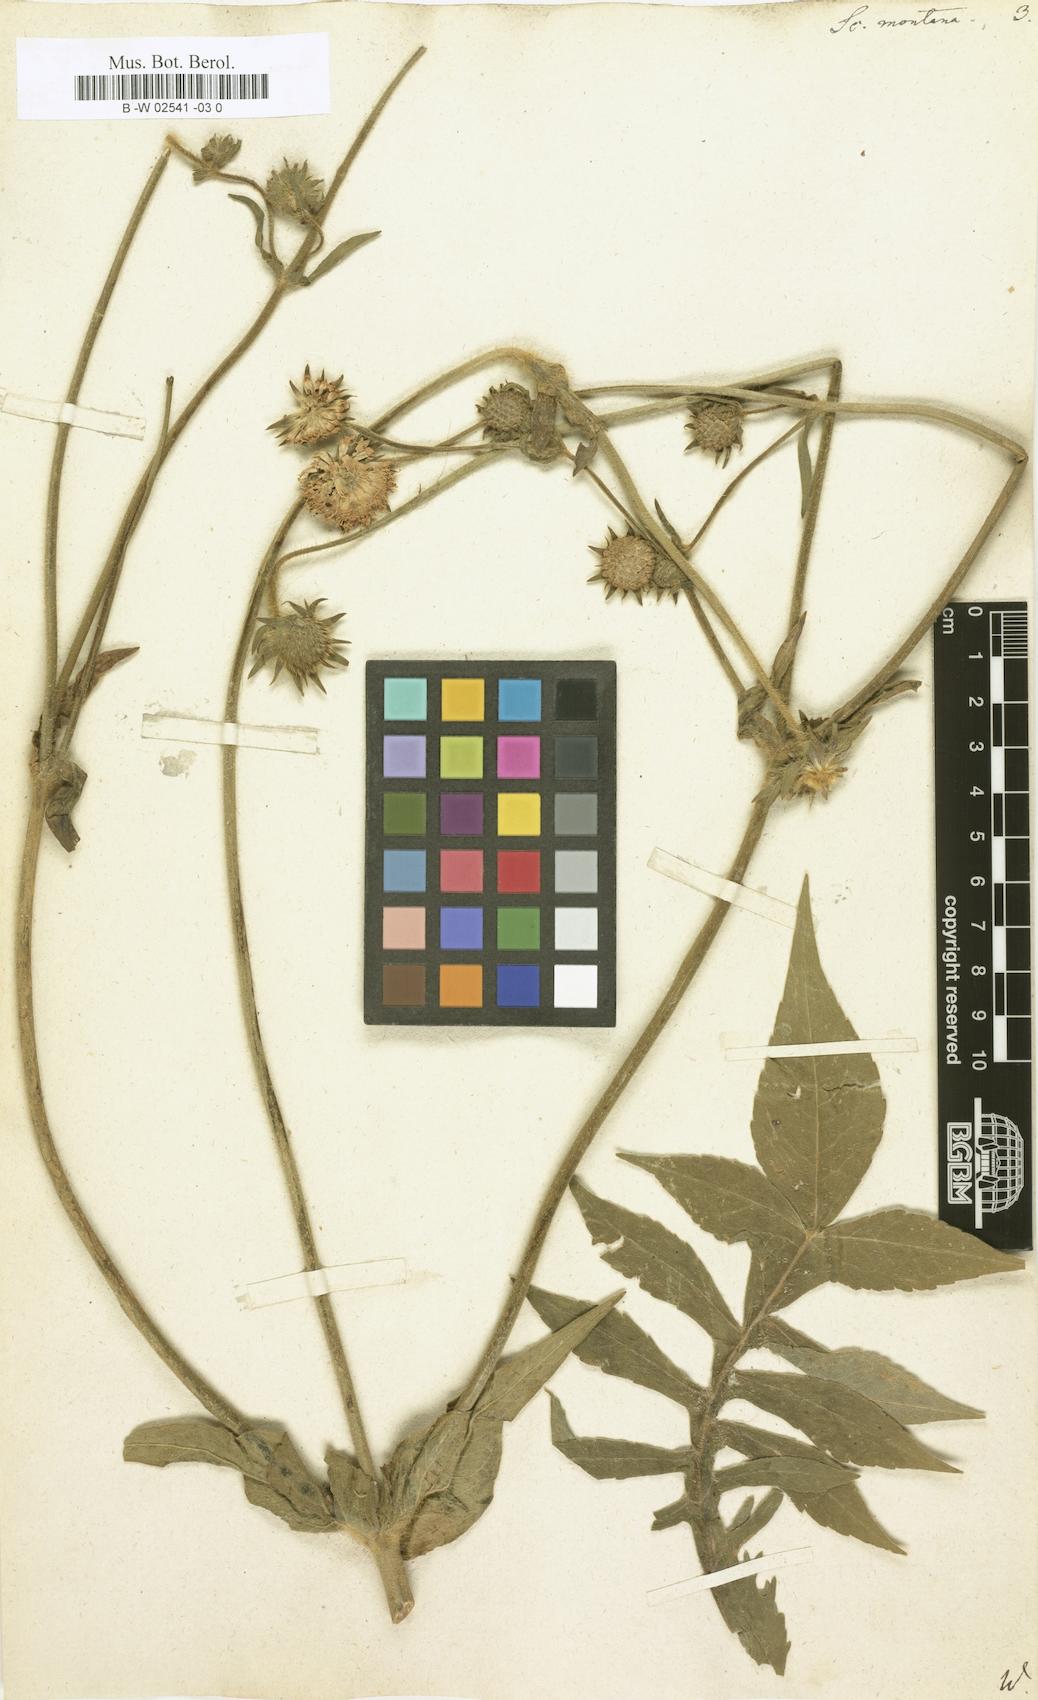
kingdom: Plantae
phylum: Tracheophyta
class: Magnoliopsida
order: Dipsacales
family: Caprifoliaceae
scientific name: Caprifoliaceae
